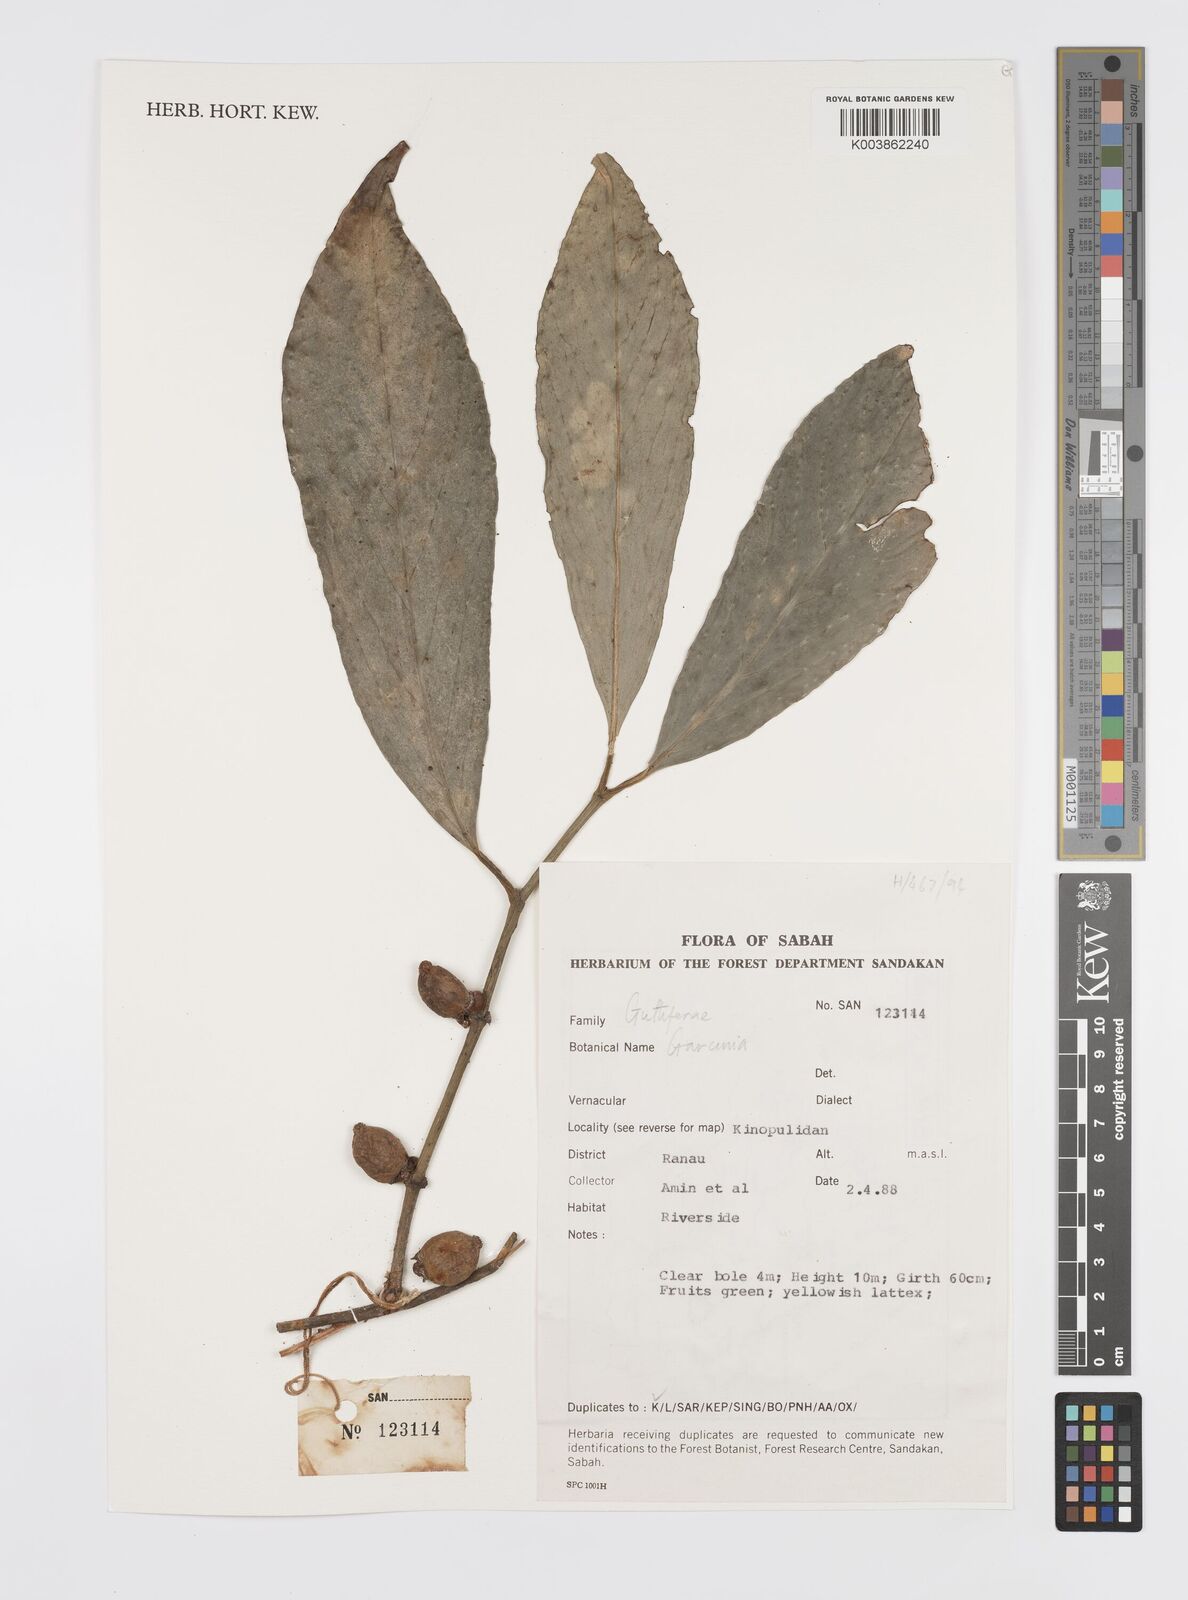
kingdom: Plantae
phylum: Tracheophyta
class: Magnoliopsida
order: Malpighiales
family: Clusiaceae
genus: Garcinia
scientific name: Garcinia
